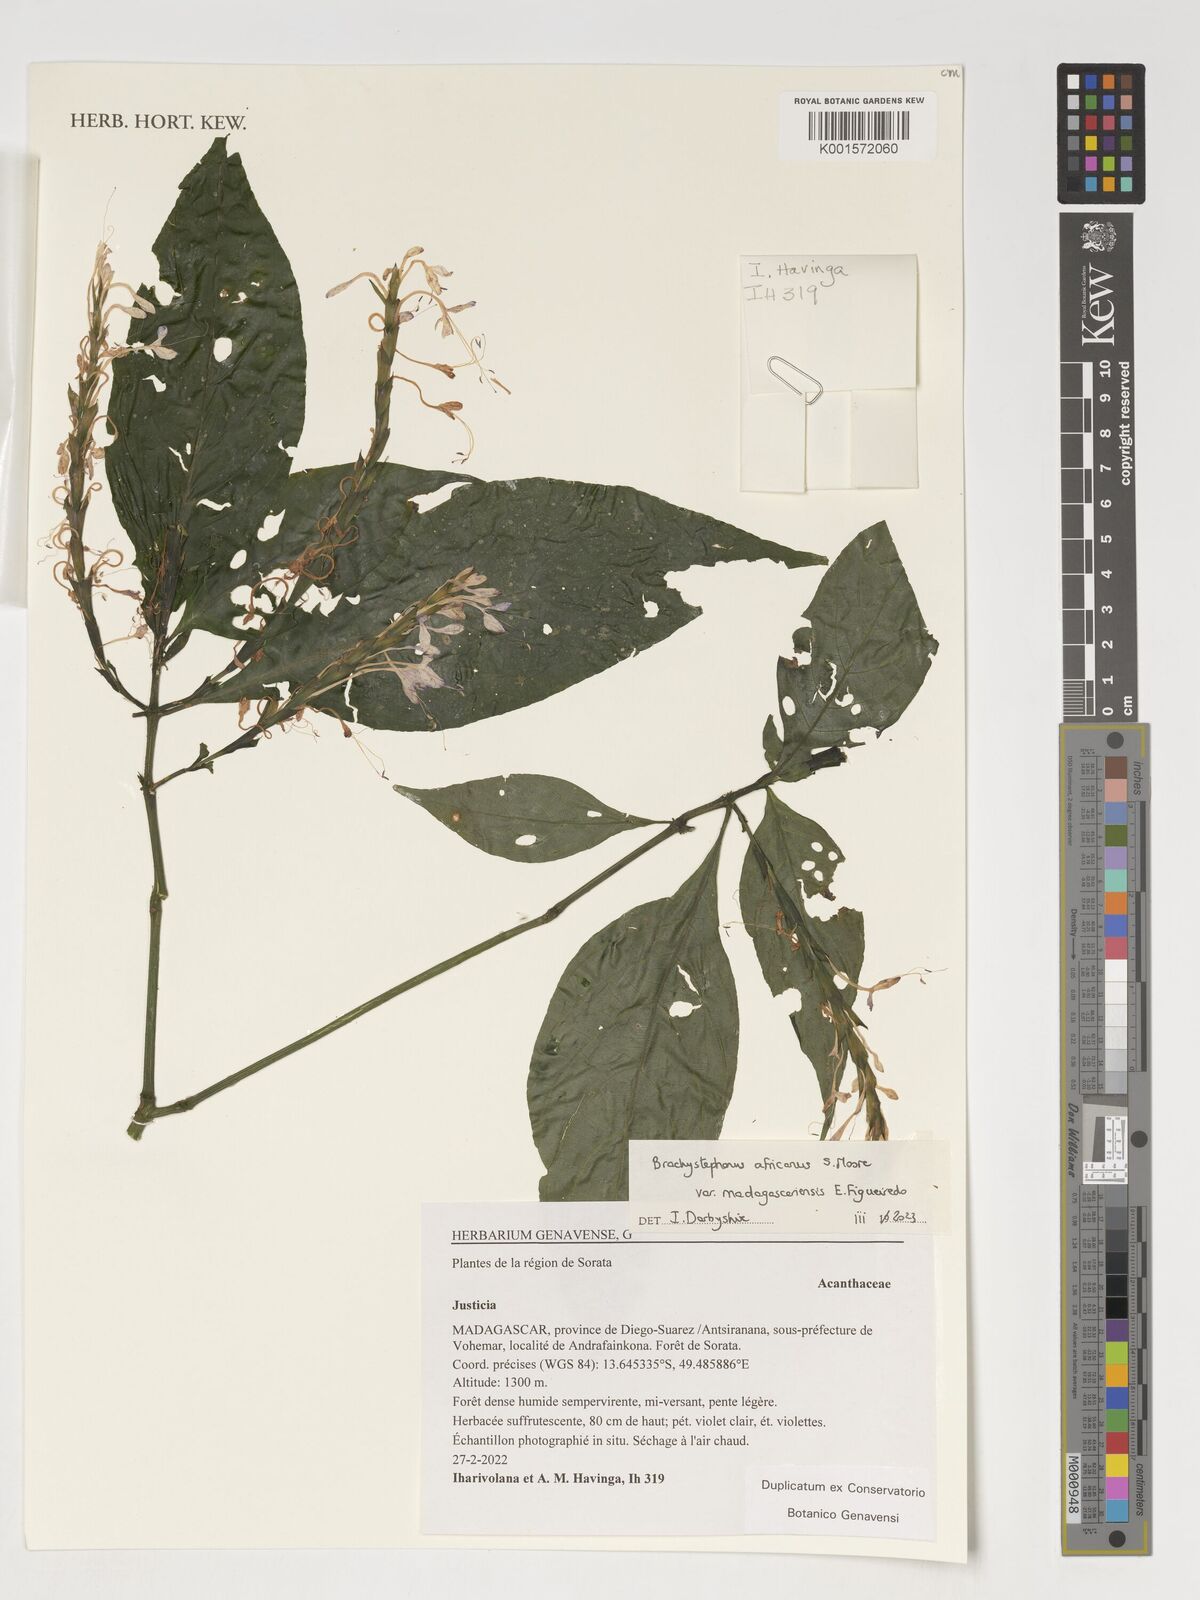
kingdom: Plantae
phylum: Tracheophyta
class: Magnoliopsida
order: Lamiales
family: Acanthaceae
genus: Justicia
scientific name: Justicia
